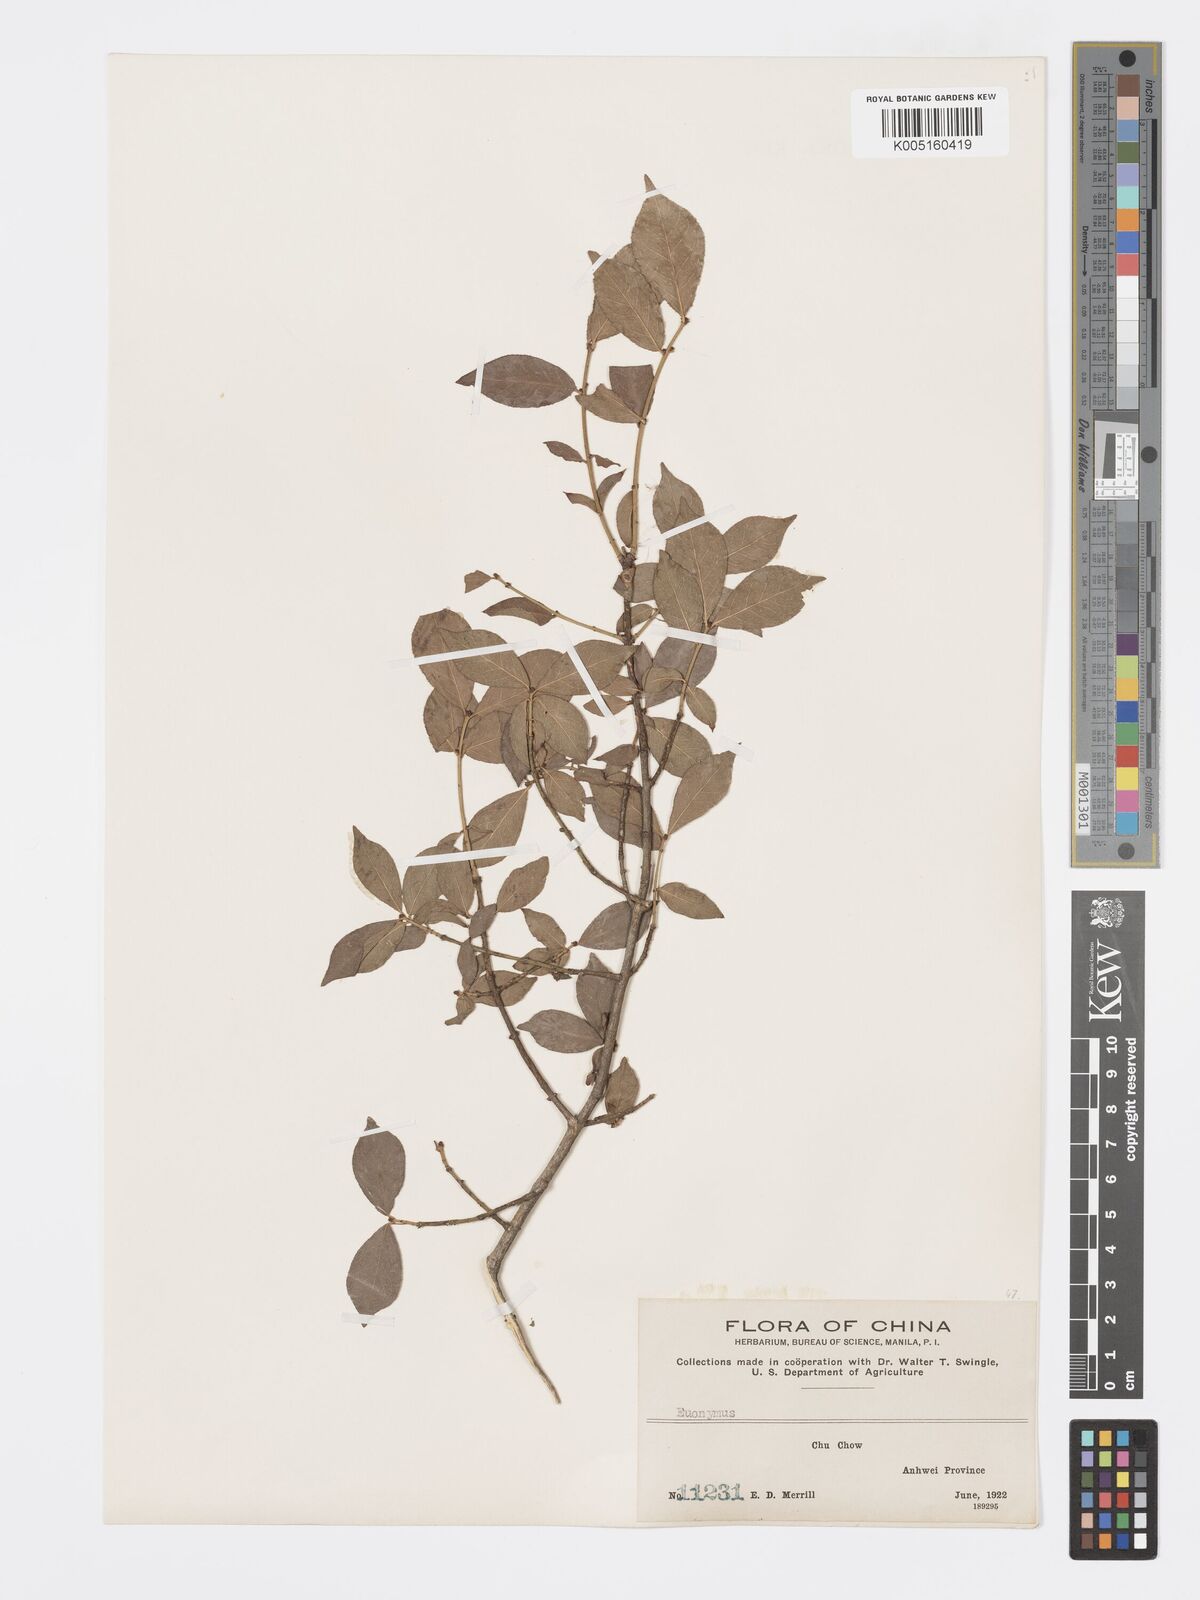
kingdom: Plantae
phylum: Tracheophyta
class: Magnoliopsida
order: Celastrales
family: Celastraceae
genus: Euonymus
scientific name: Euonymus
